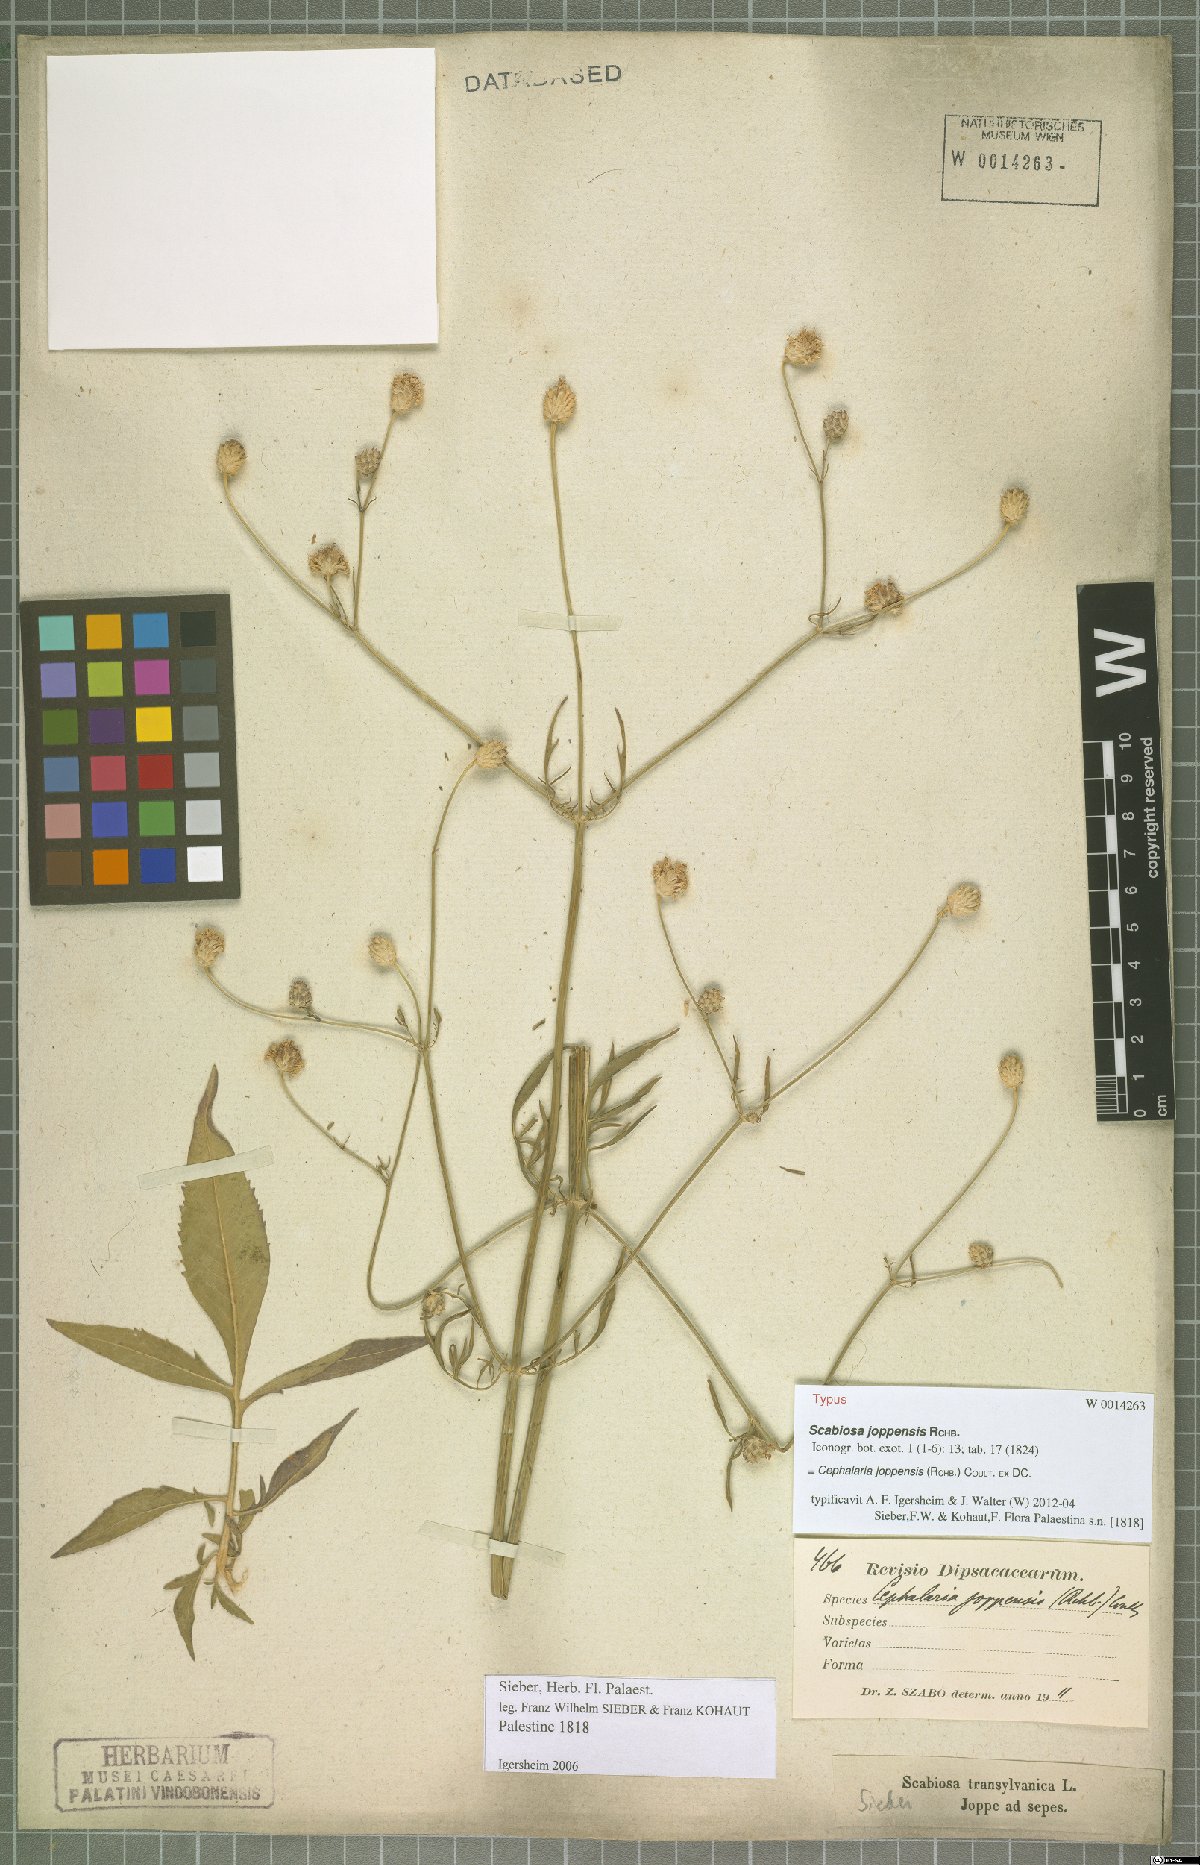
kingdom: Plantae
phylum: Tracheophyta
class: Magnoliopsida
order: Dipsacales
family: Caprifoliaceae
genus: Cephalaria
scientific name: Cephalaria joppensis
